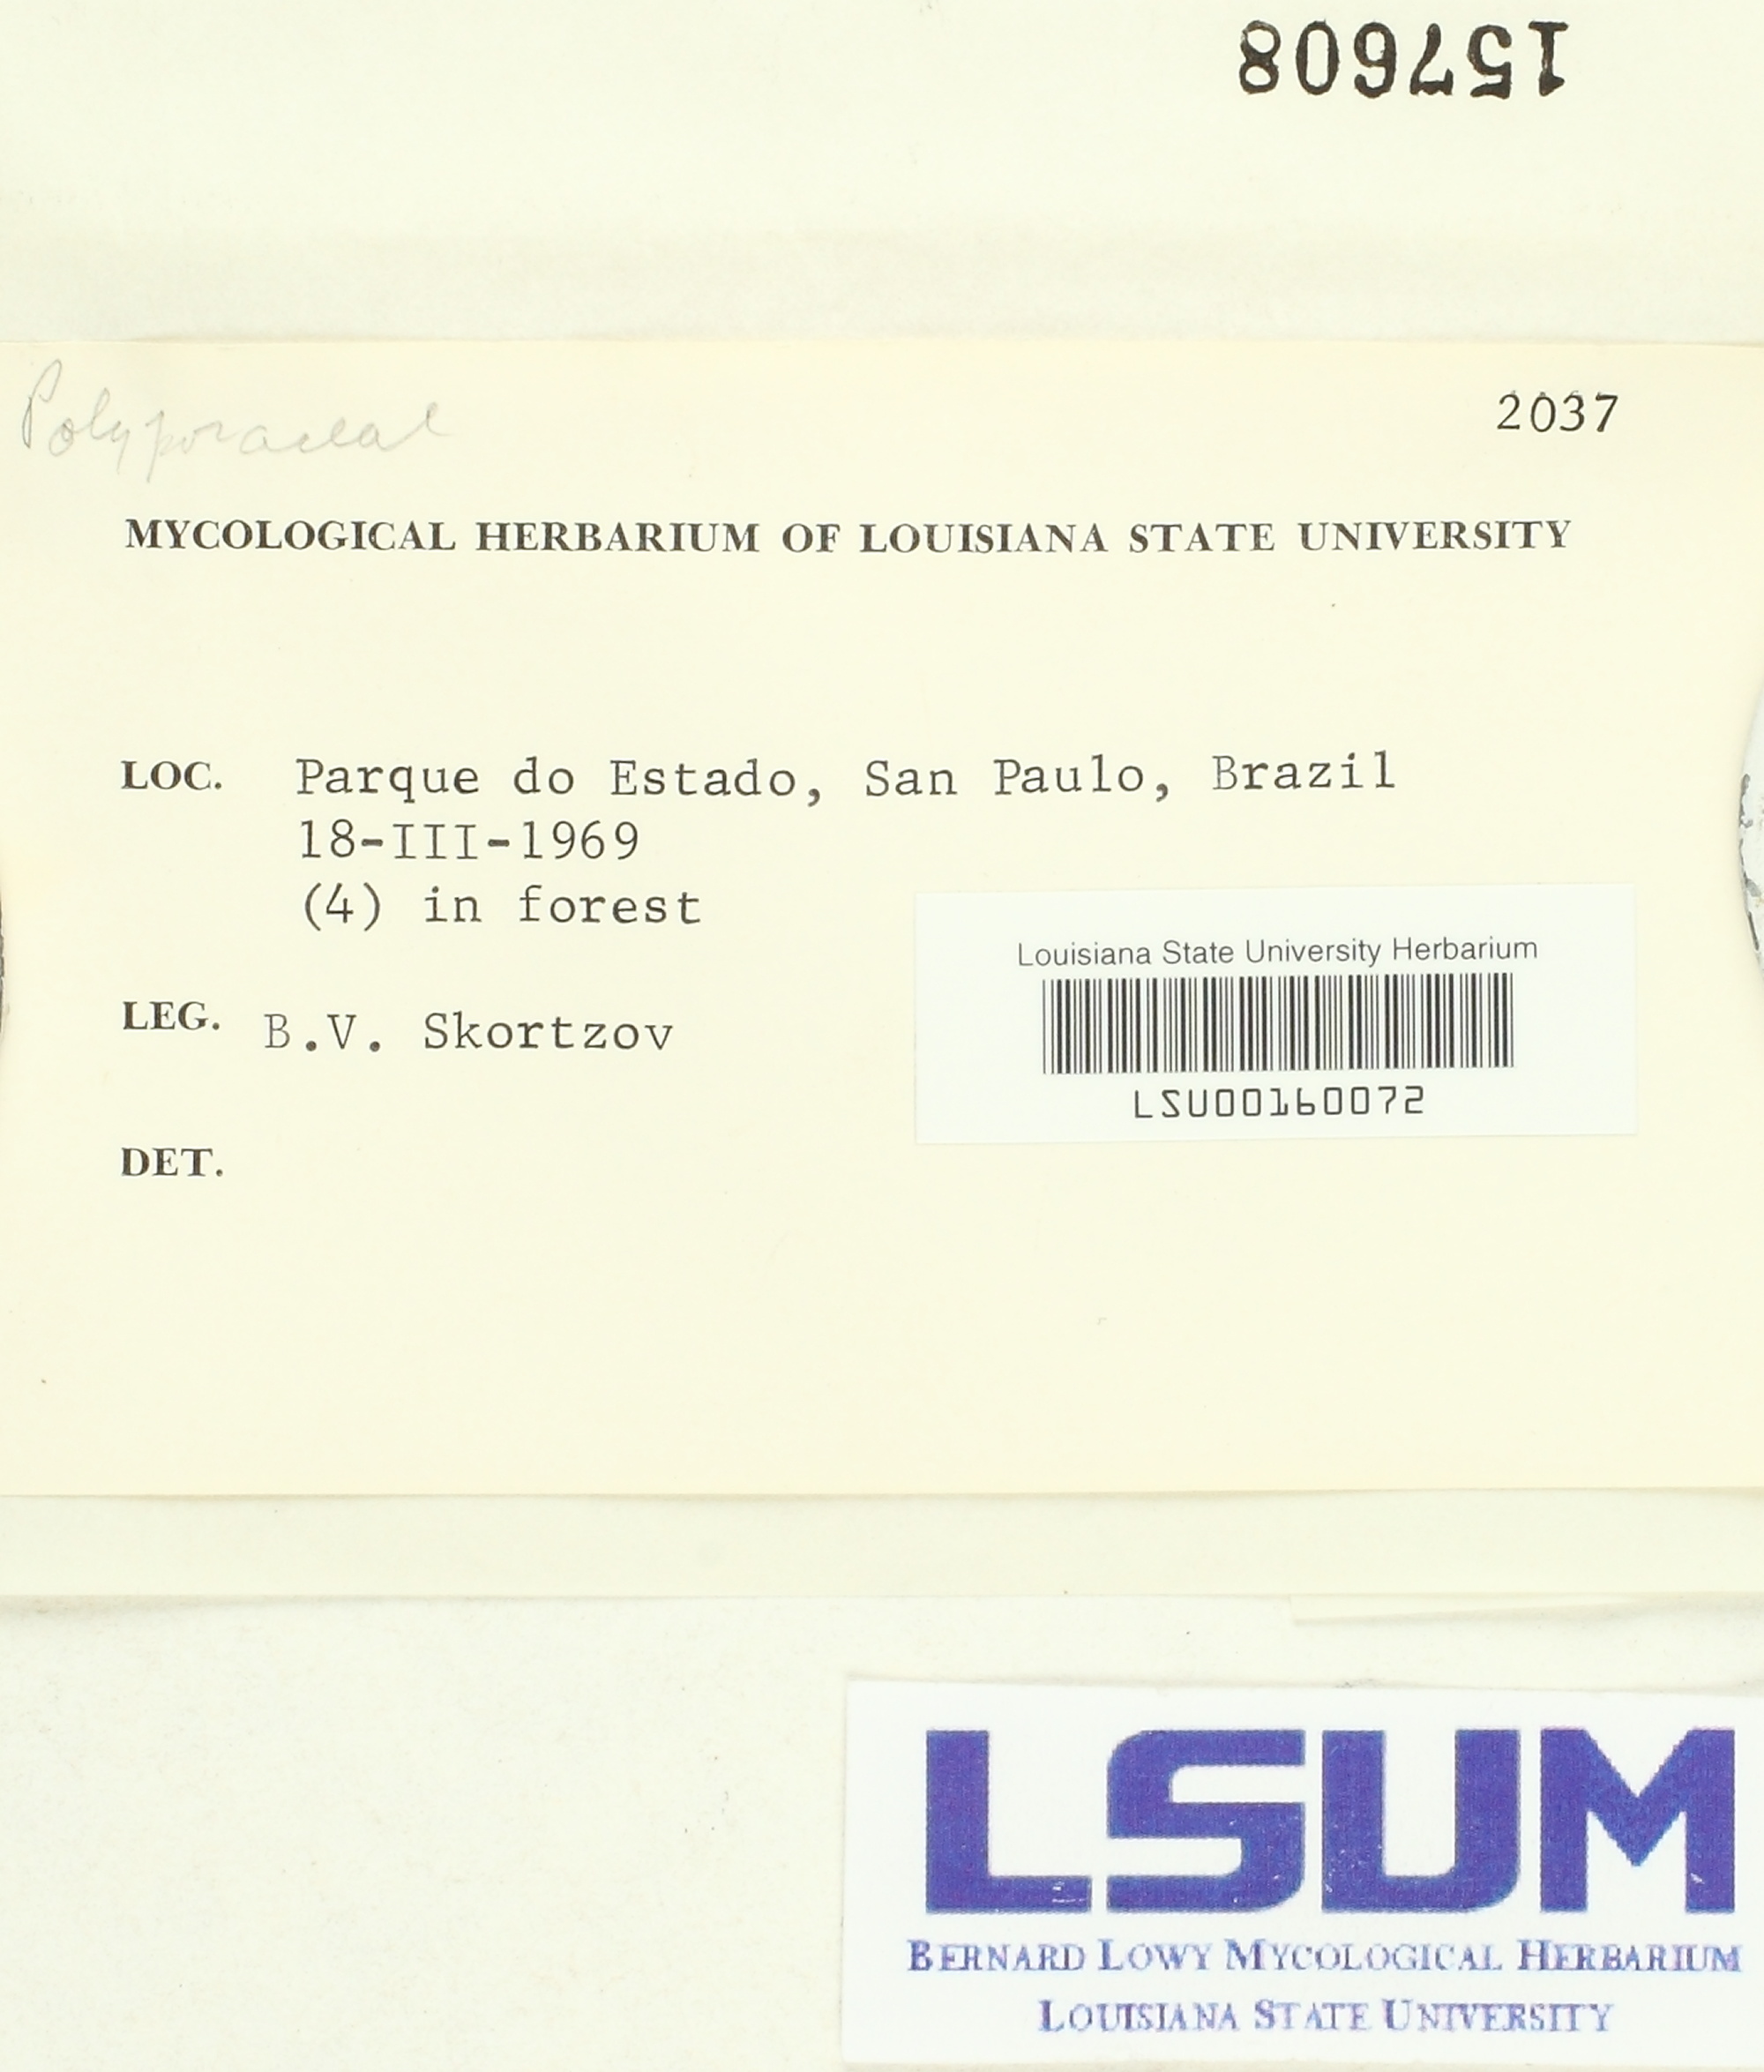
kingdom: Fungi
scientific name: Fungi
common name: Fungi
